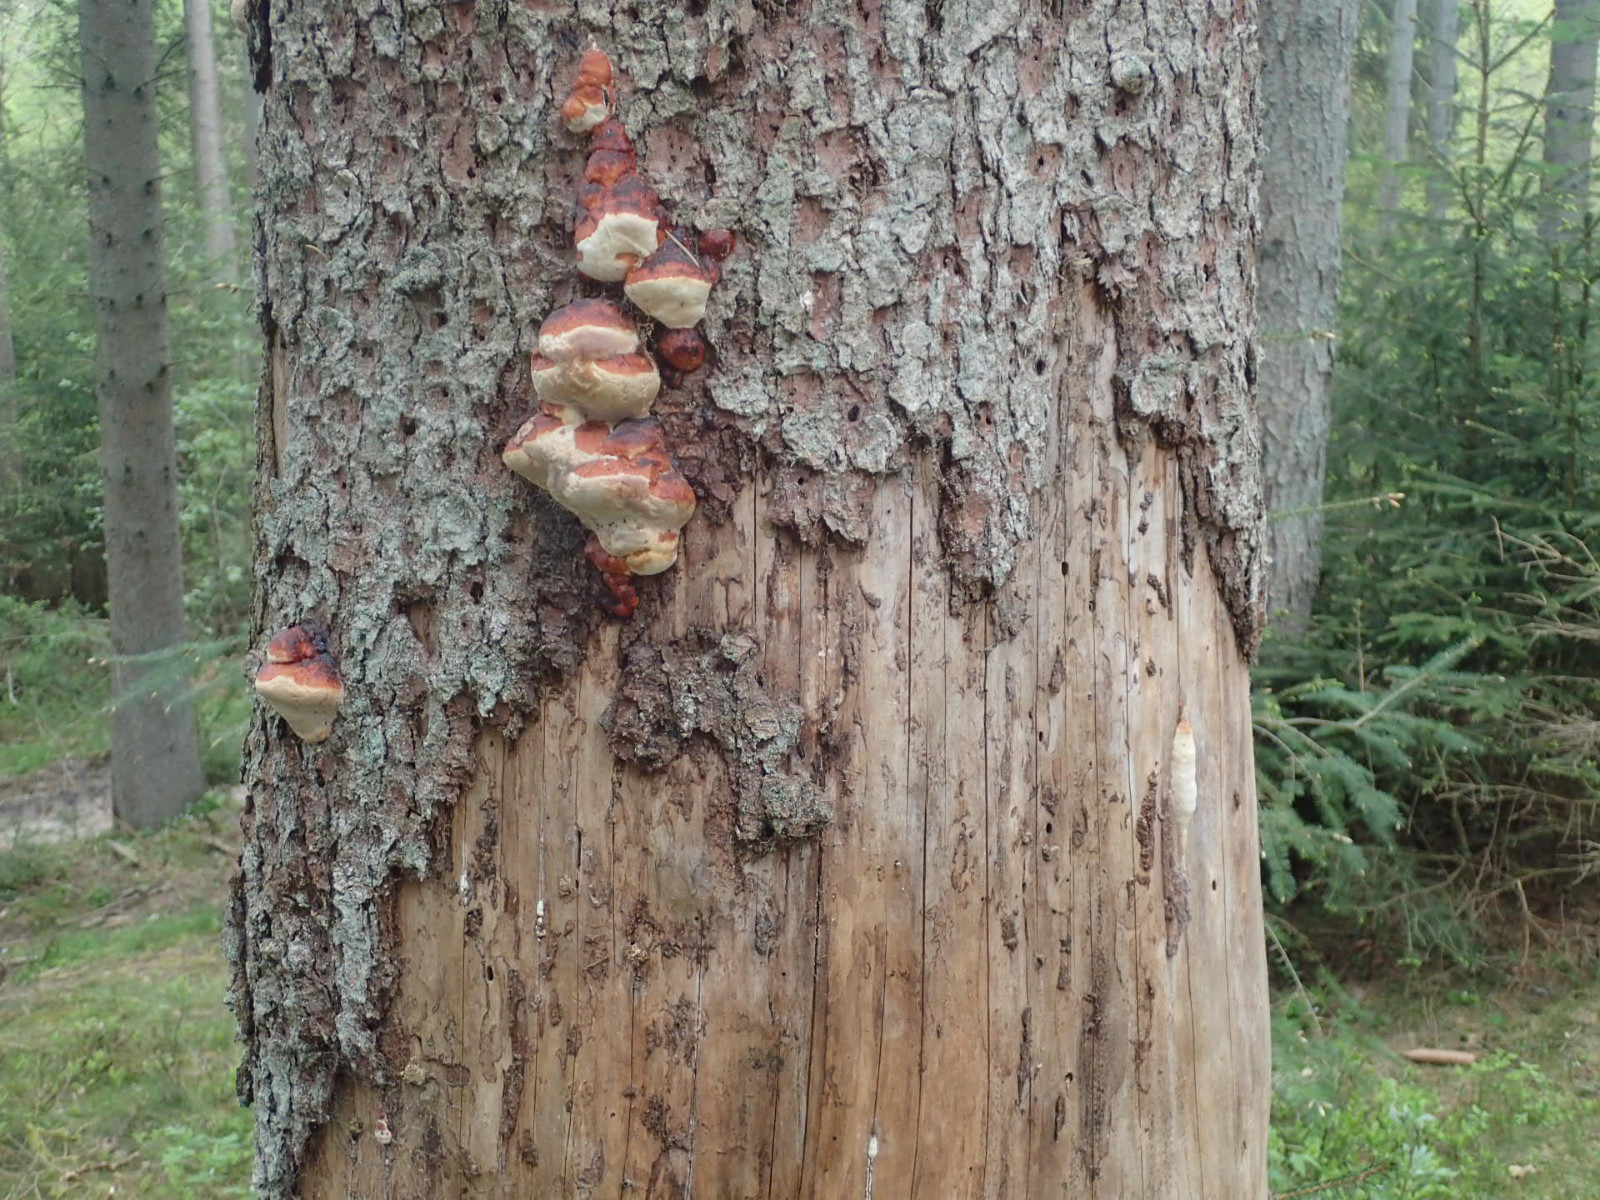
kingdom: Fungi
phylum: Basidiomycota
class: Agaricomycetes
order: Polyporales
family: Fomitopsidaceae
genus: Fomitopsis
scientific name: Fomitopsis pinicola
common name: randbæltet hovporesvamp
